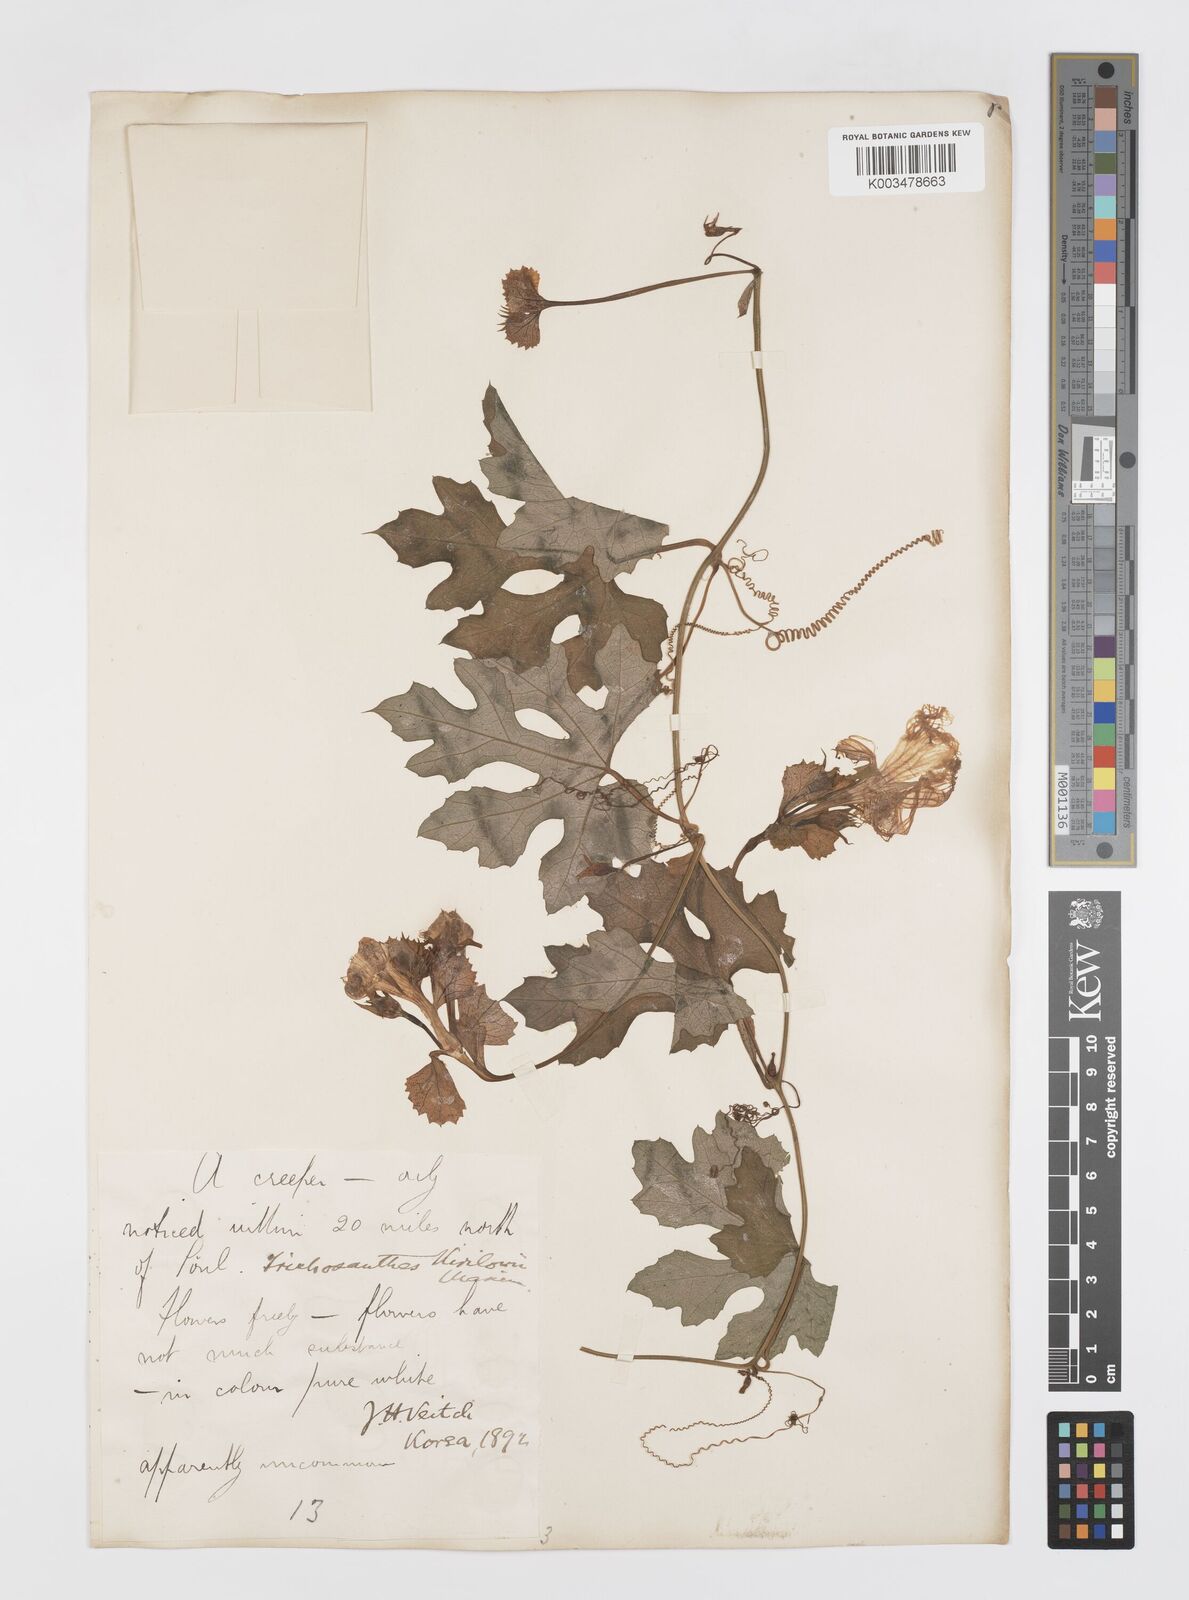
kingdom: Plantae
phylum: Tracheophyta
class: Magnoliopsida
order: Cucurbitales
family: Cucurbitaceae
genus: Trichosanthes
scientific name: Trichosanthes kirilowii
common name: Chinese-cucumber
